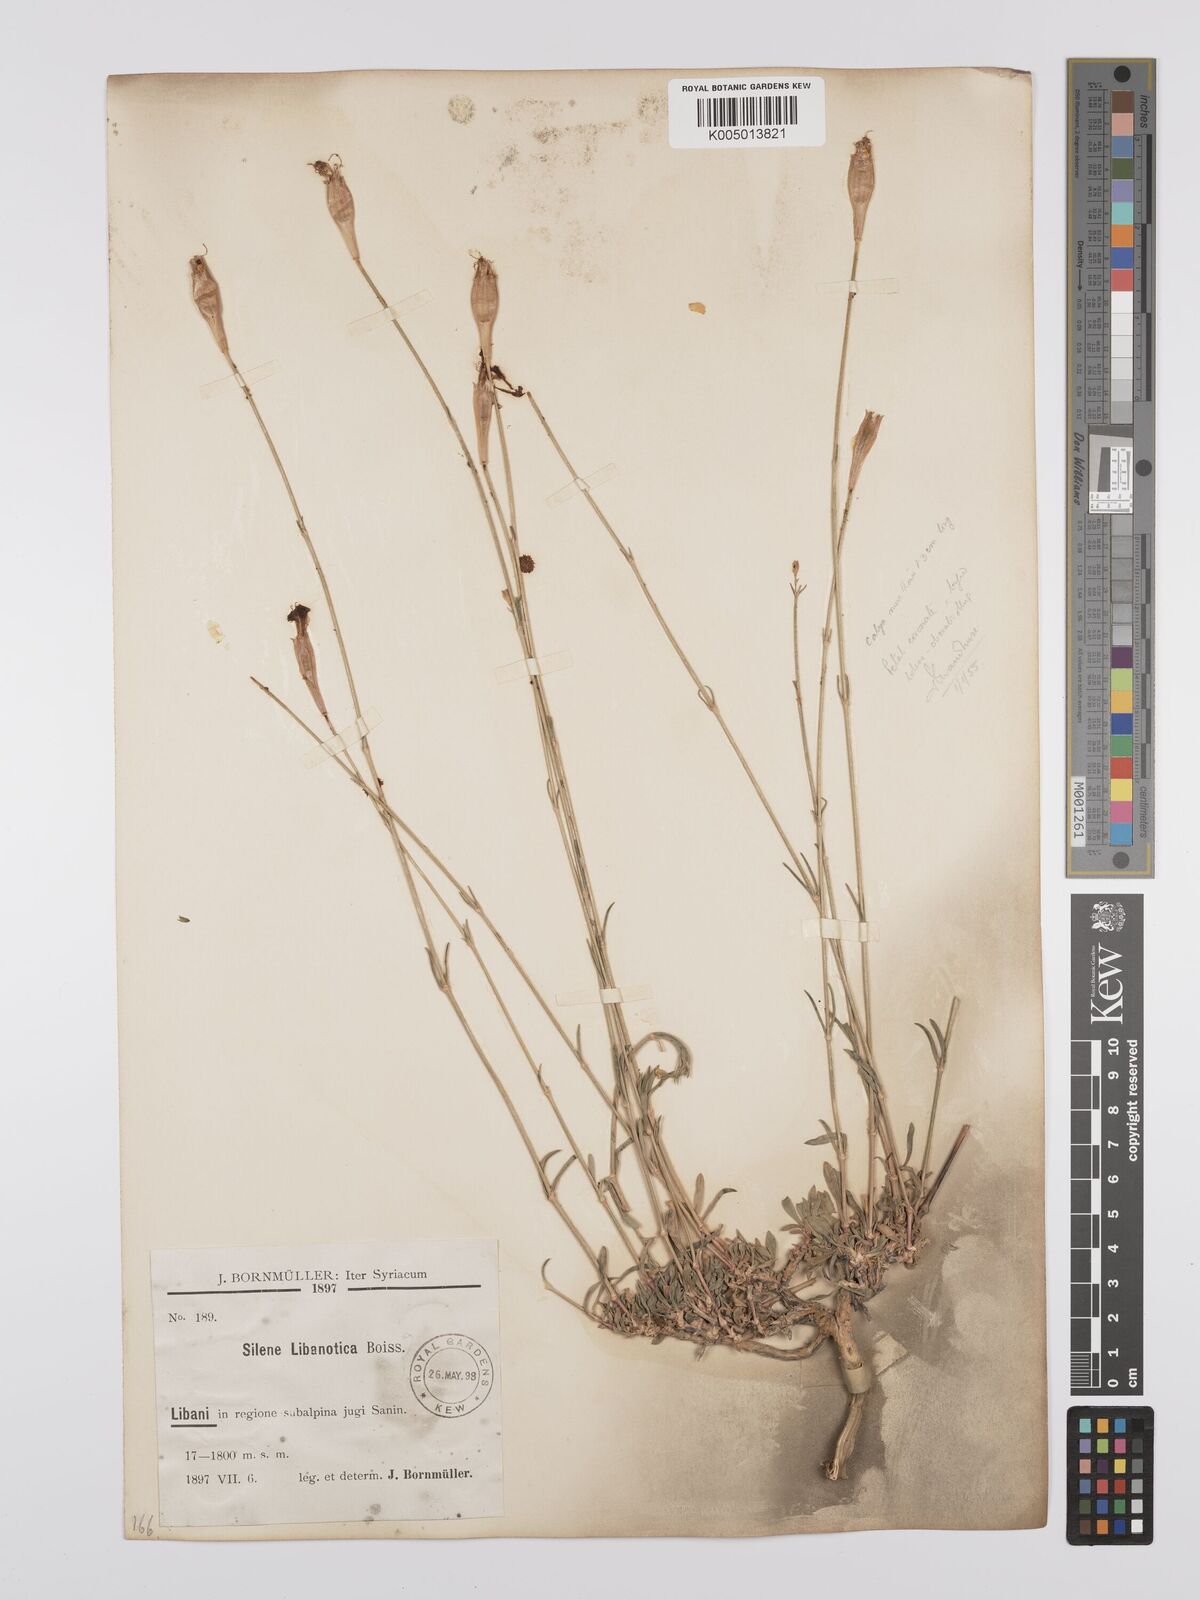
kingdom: Plantae
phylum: Tracheophyta
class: Magnoliopsida
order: Caryophyllales
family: Caryophyllaceae
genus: Silene
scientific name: Silene libanotica
